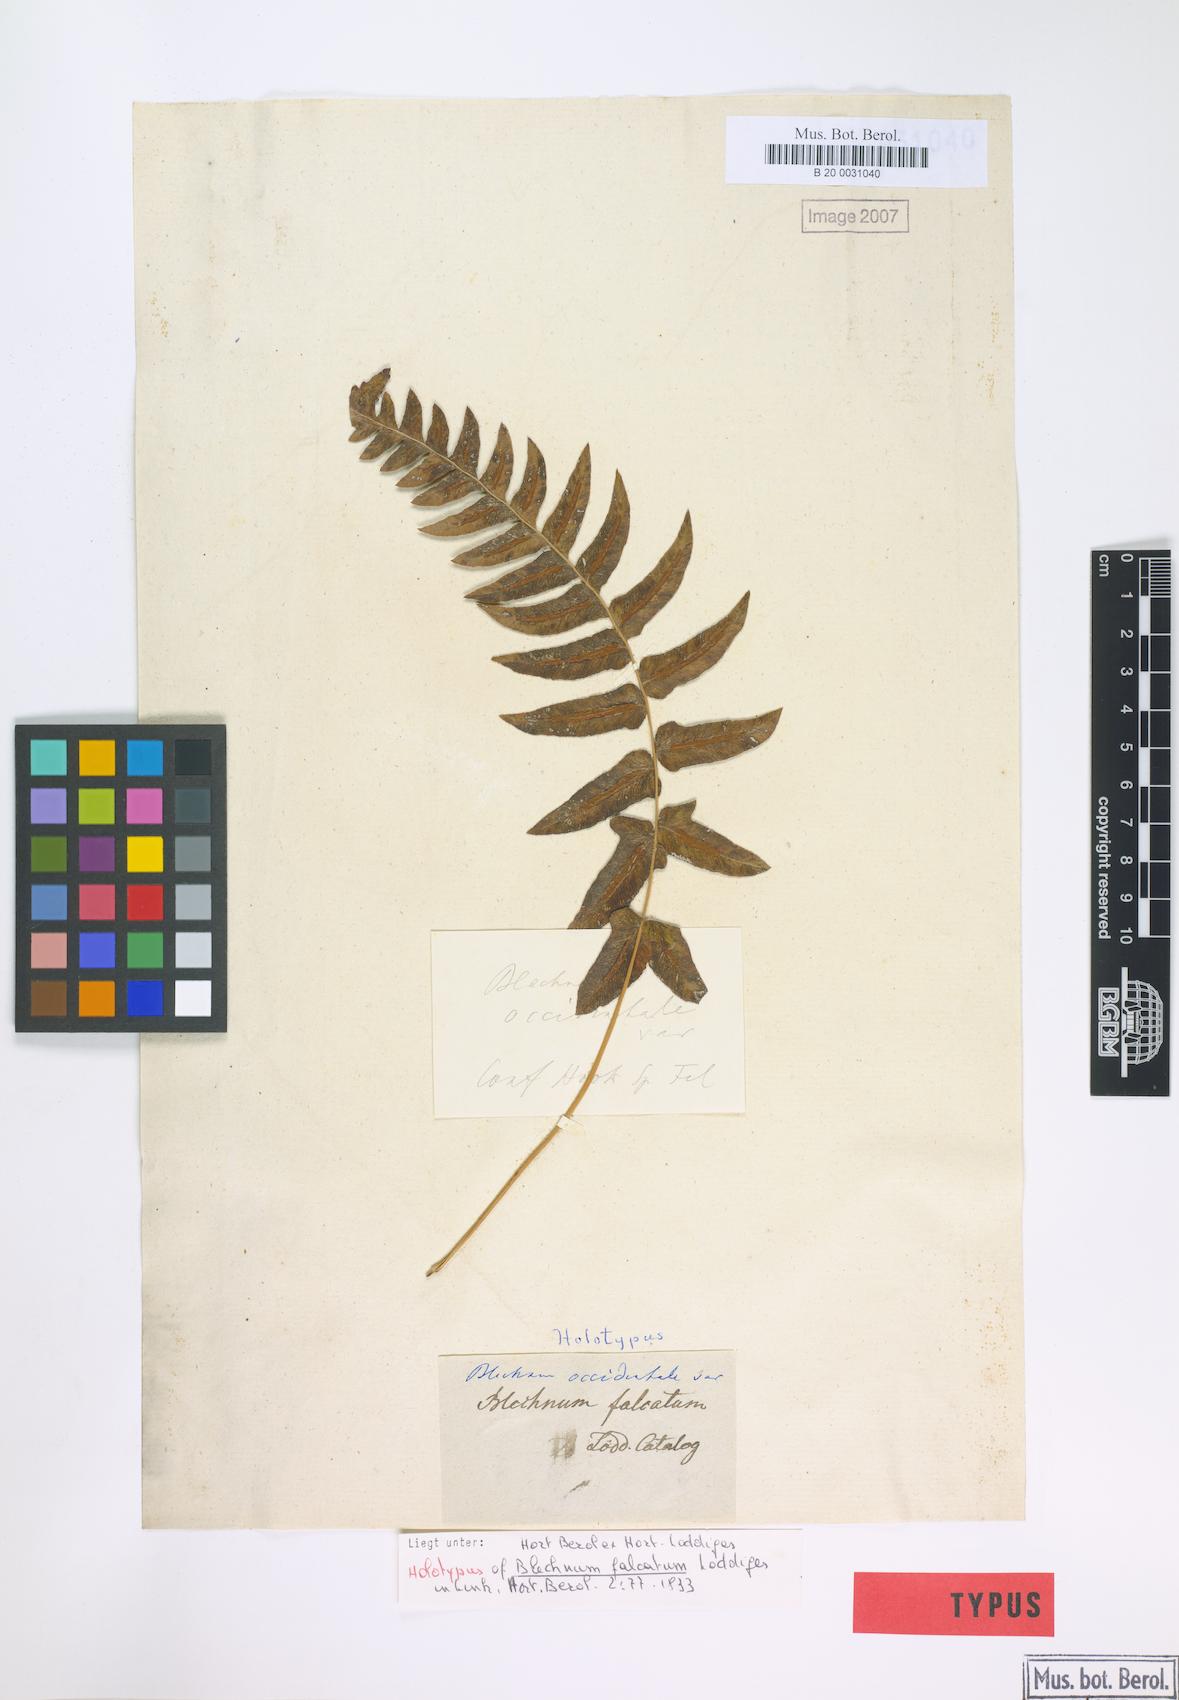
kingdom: Plantae
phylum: Tracheophyta
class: Polypodiopsida
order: Polypodiales
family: Blechnaceae
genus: Blechnum
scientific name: Blechnum occidentale
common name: Hammock fern
